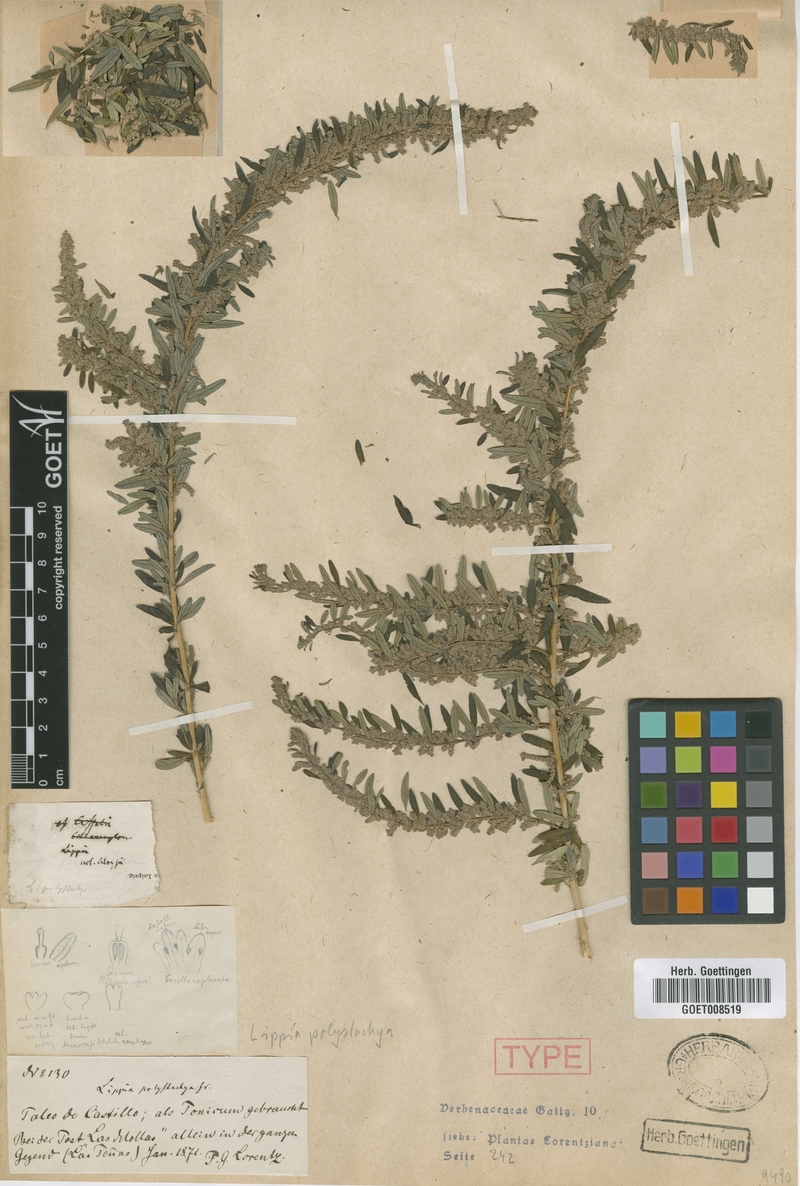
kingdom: Plantae
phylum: Tracheophyta
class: Magnoliopsida
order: Lamiales
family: Verbenaceae
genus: Aloysia
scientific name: Aloysia polystachya
